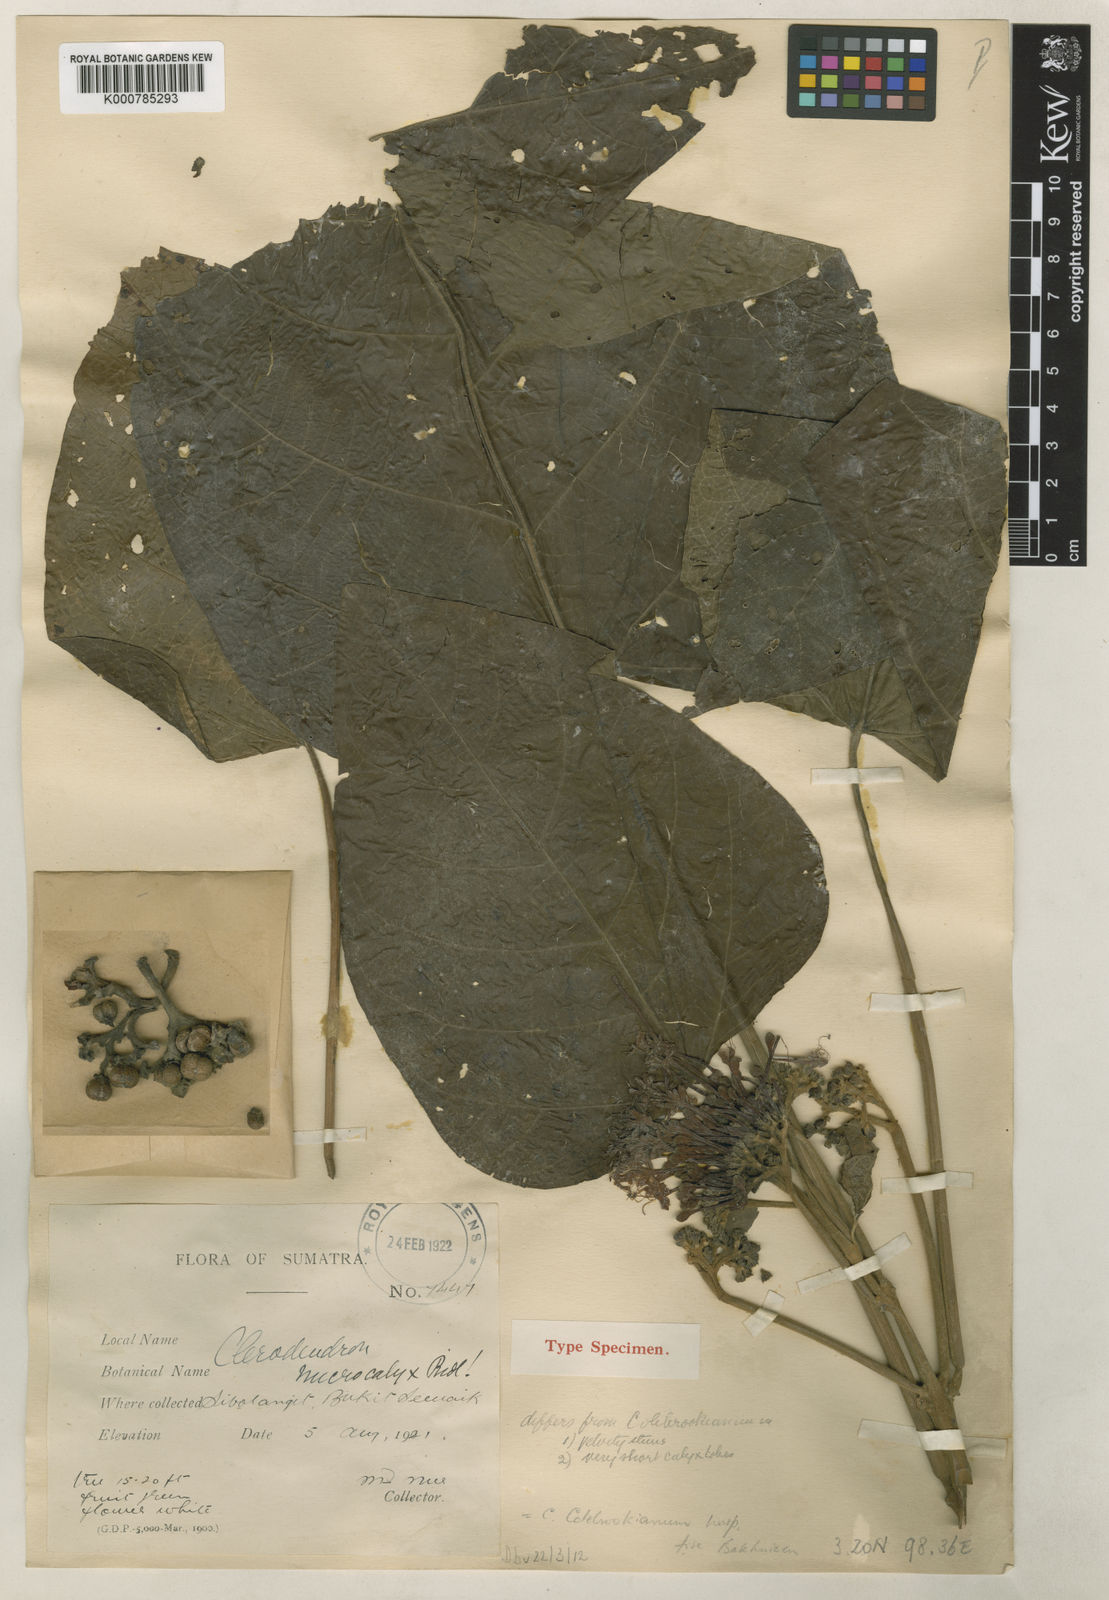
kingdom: Plantae
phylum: Tracheophyta
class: Magnoliopsida
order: Lamiales
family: Lamiaceae
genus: Clerodendrum
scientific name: Clerodendrum
